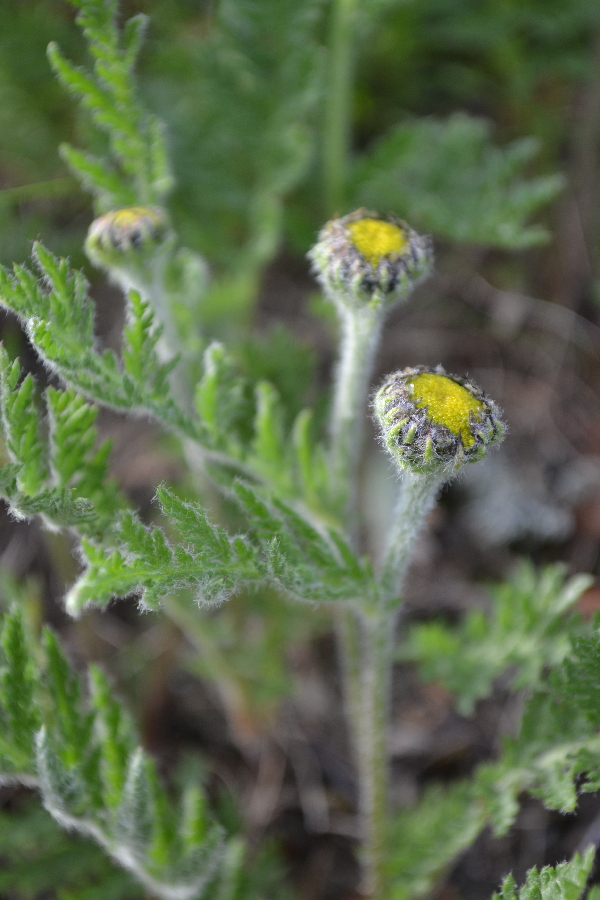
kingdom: Plantae
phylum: Tracheophyta
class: Magnoliopsida
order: Asterales
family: Asteraceae
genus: Tanacetum
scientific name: Tanacetum bipinnatum
